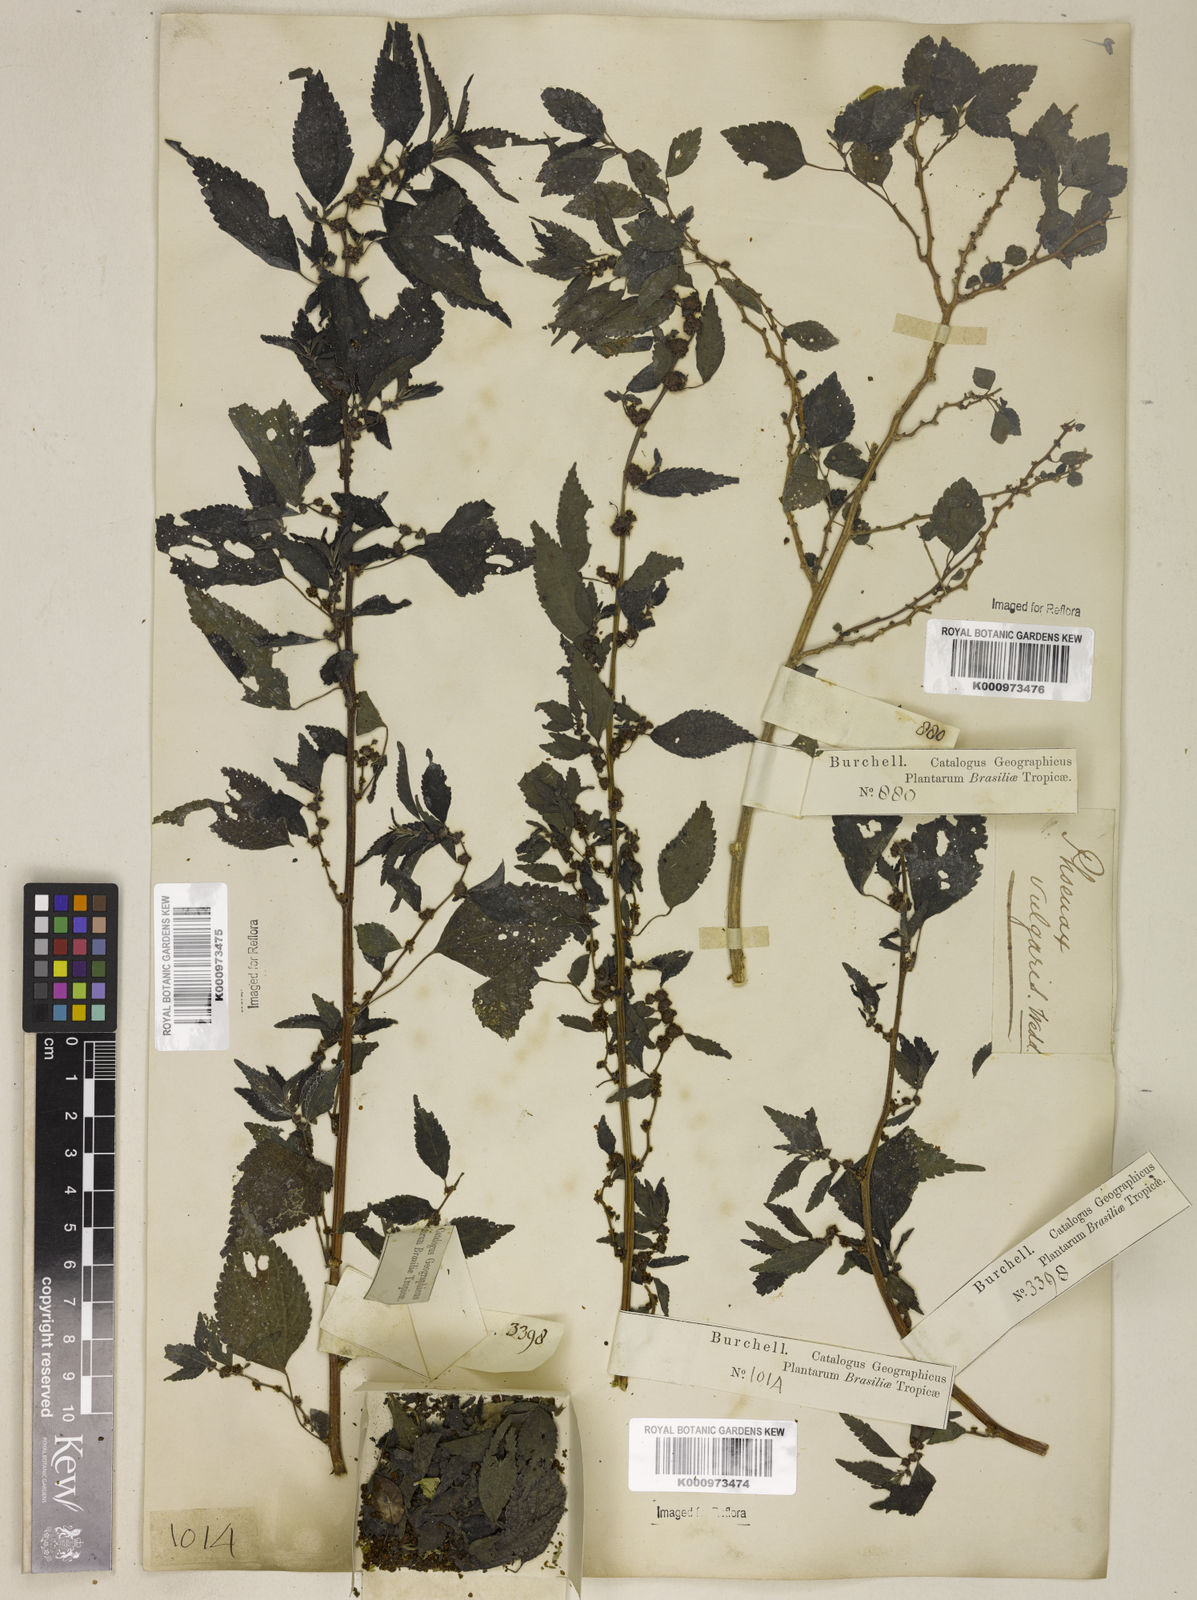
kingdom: Plantae
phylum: Tracheophyta
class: Magnoliopsida
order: Rosales
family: Urticaceae
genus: Phenax
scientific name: Phenax sonneratii
